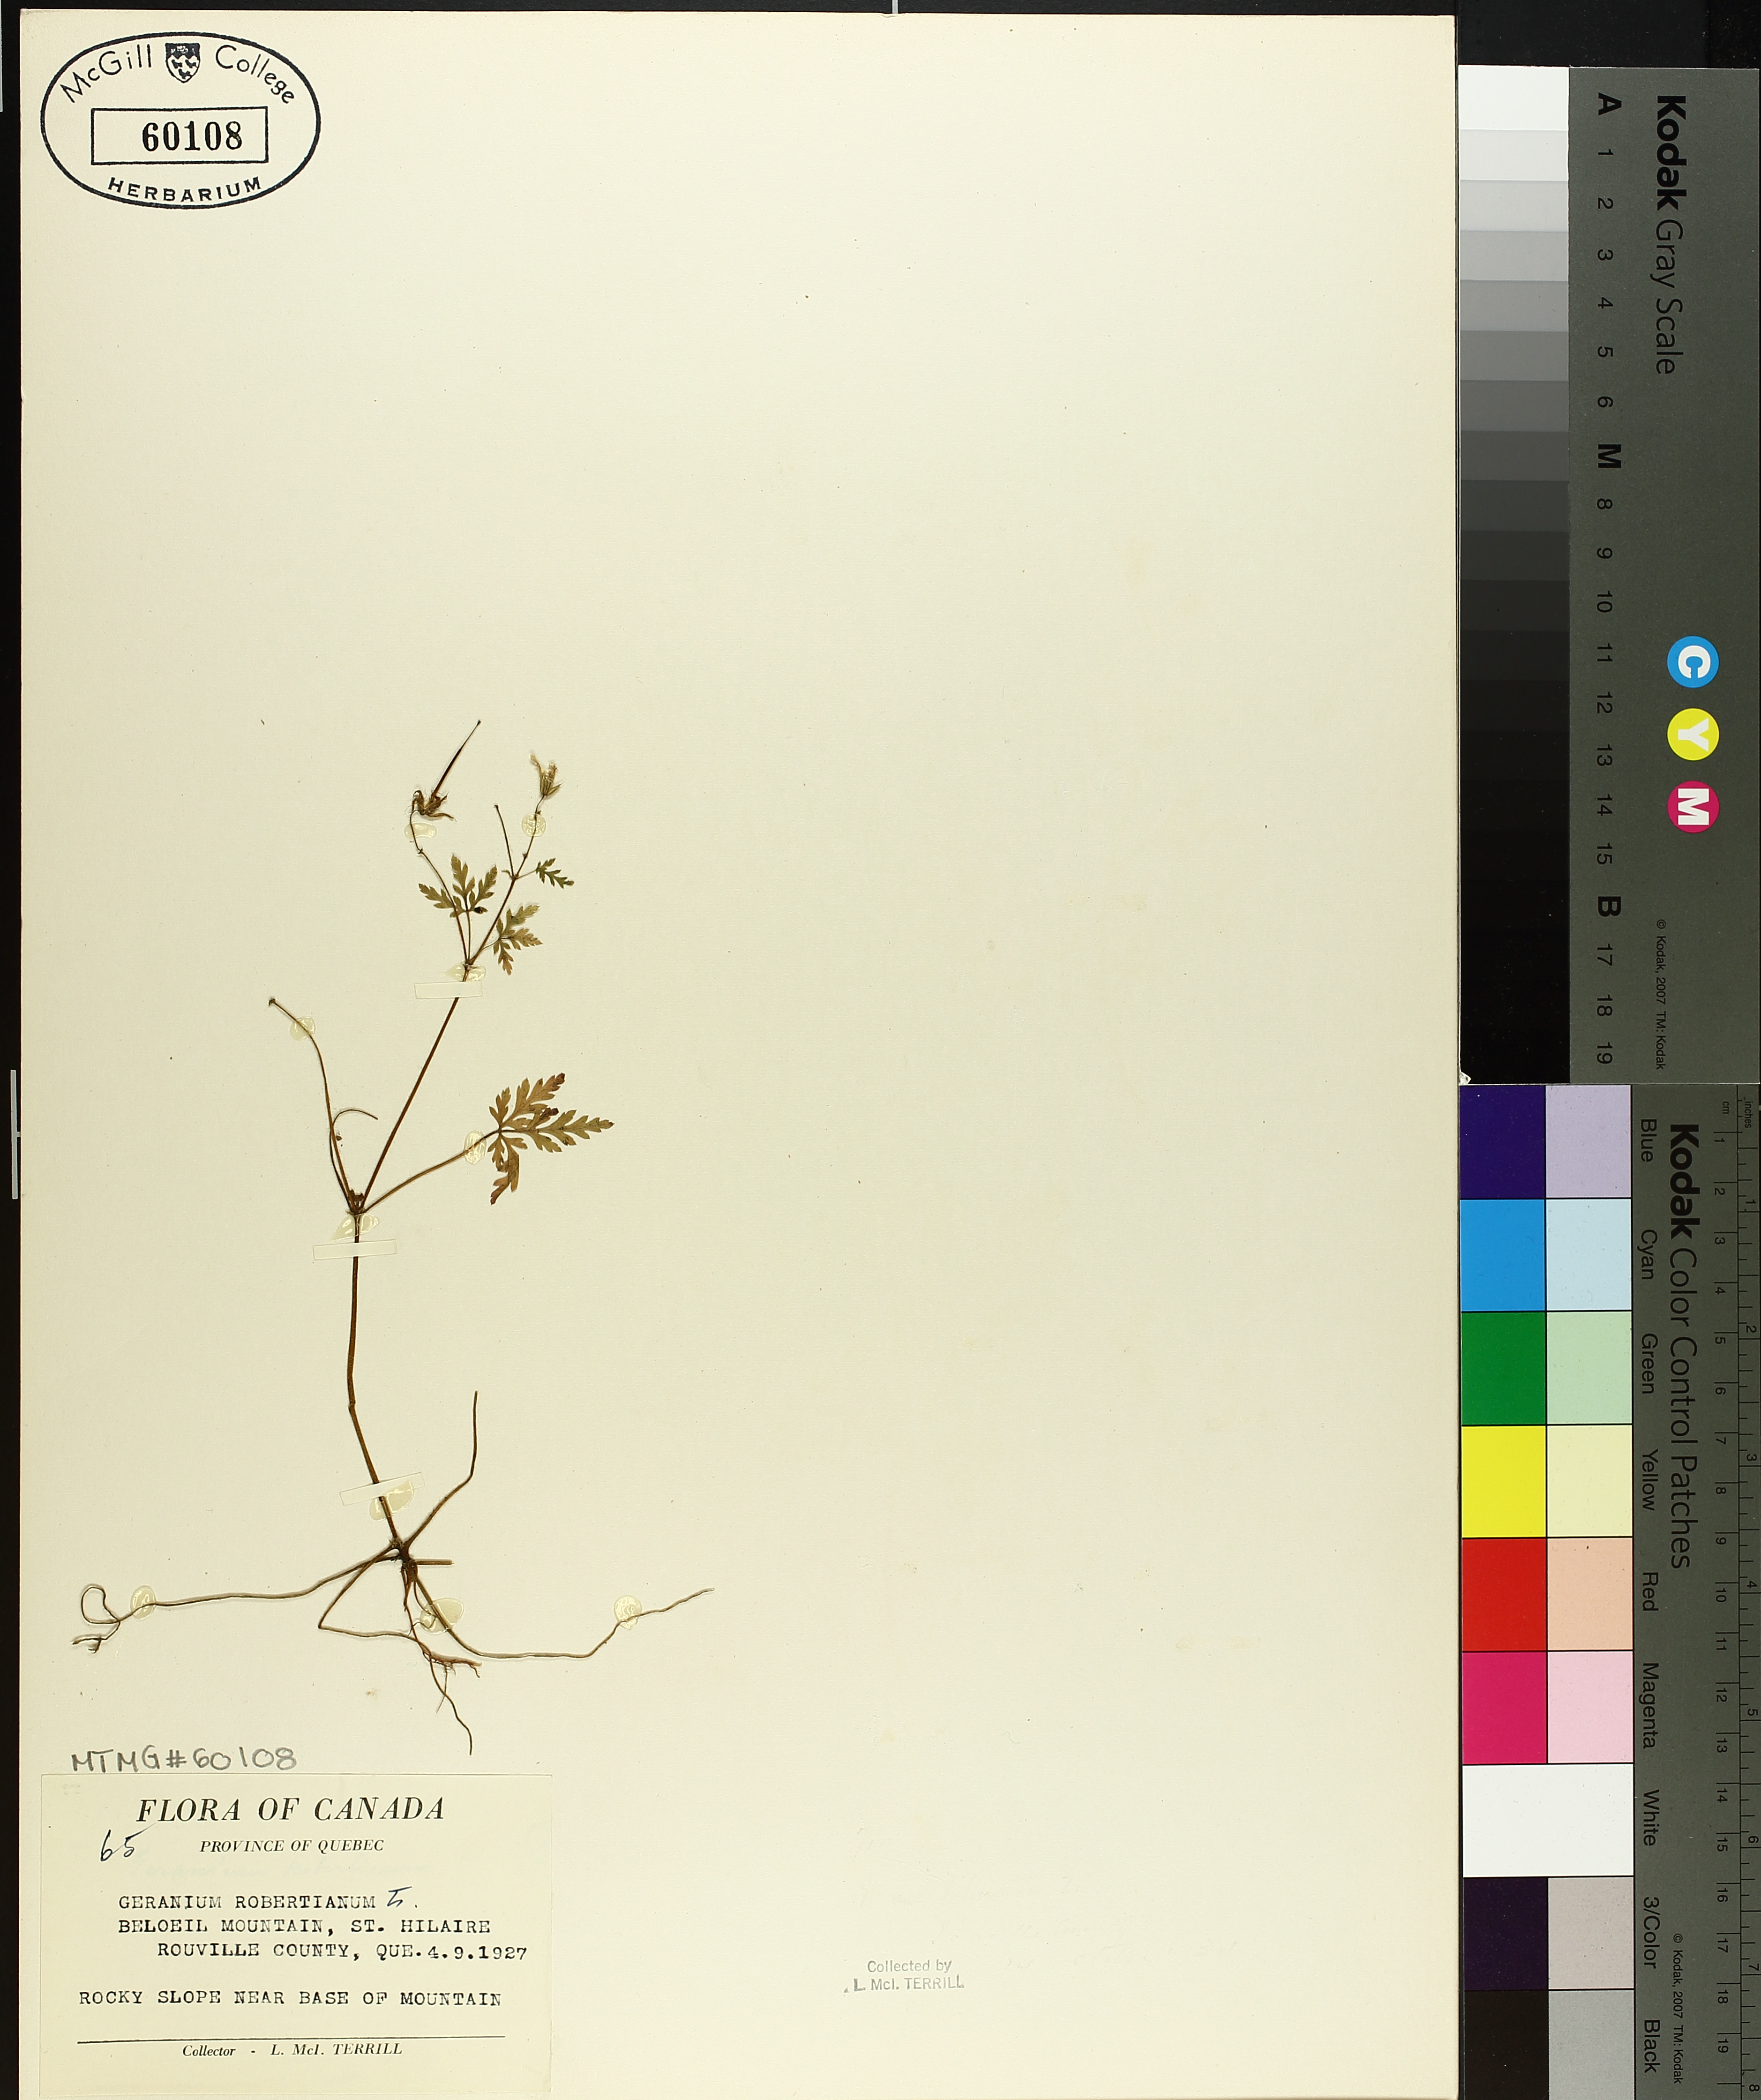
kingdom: Plantae
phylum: Tracheophyta
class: Magnoliopsida
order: Geraniales
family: Geraniaceae
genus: Geranium
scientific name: Geranium robertianum
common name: Herb-robert
